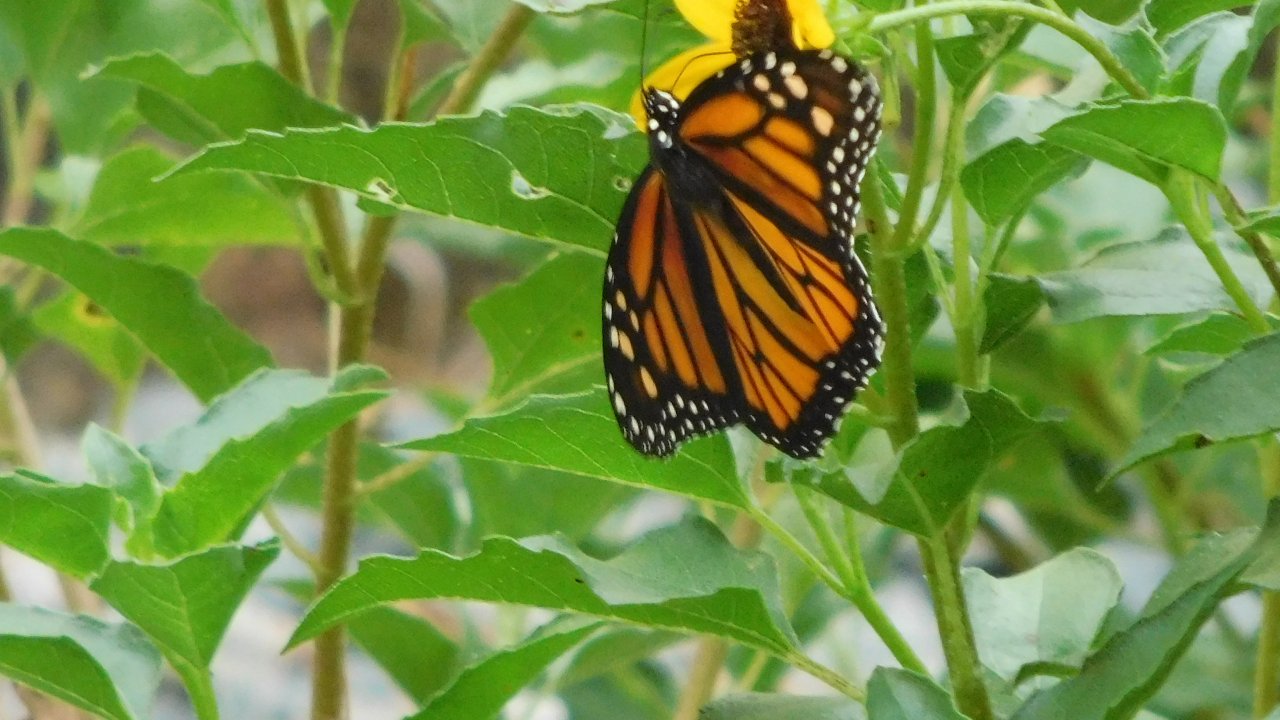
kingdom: Animalia
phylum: Arthropoda
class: Insecta
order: Lepidoptera
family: Nymphalidae
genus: Danaus
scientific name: Danaus plexippus
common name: Monarch
